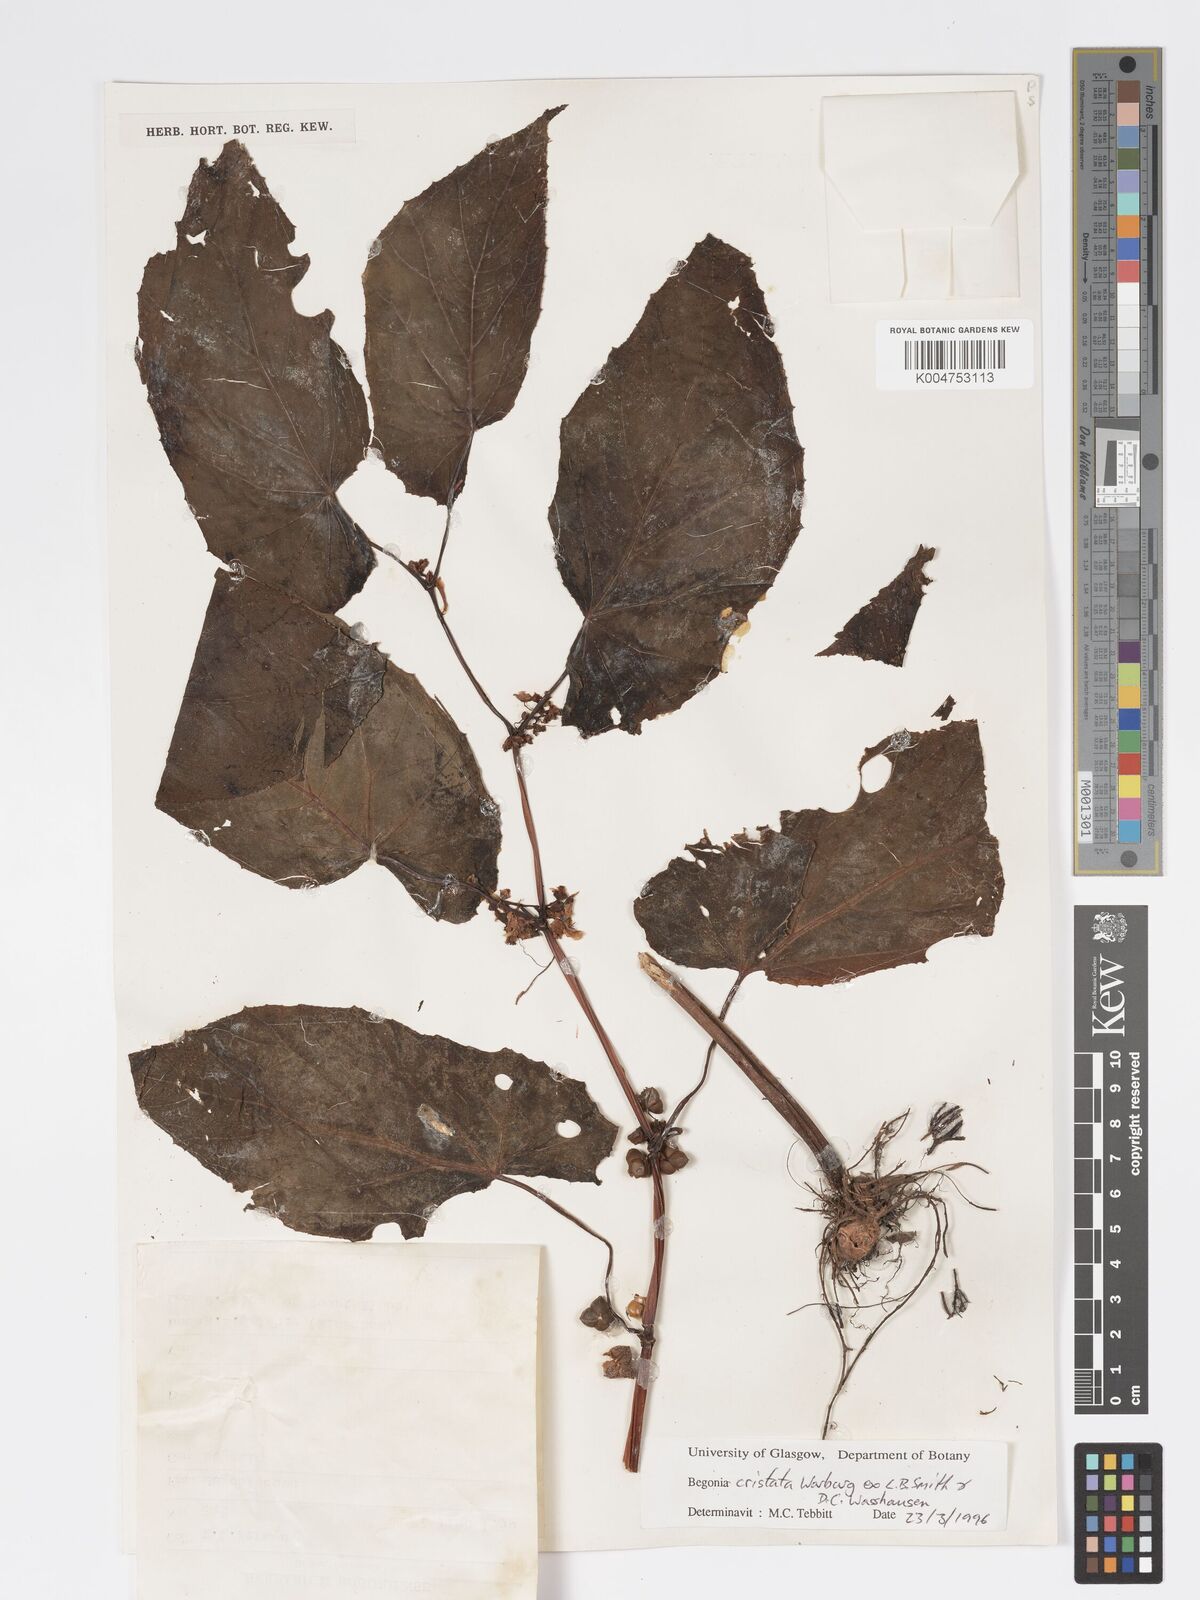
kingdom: Plantae
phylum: Tracheophyta
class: Magnoliopsida
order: Cucurbitales
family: Begoniaceae
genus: Begonia
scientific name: Begonia
